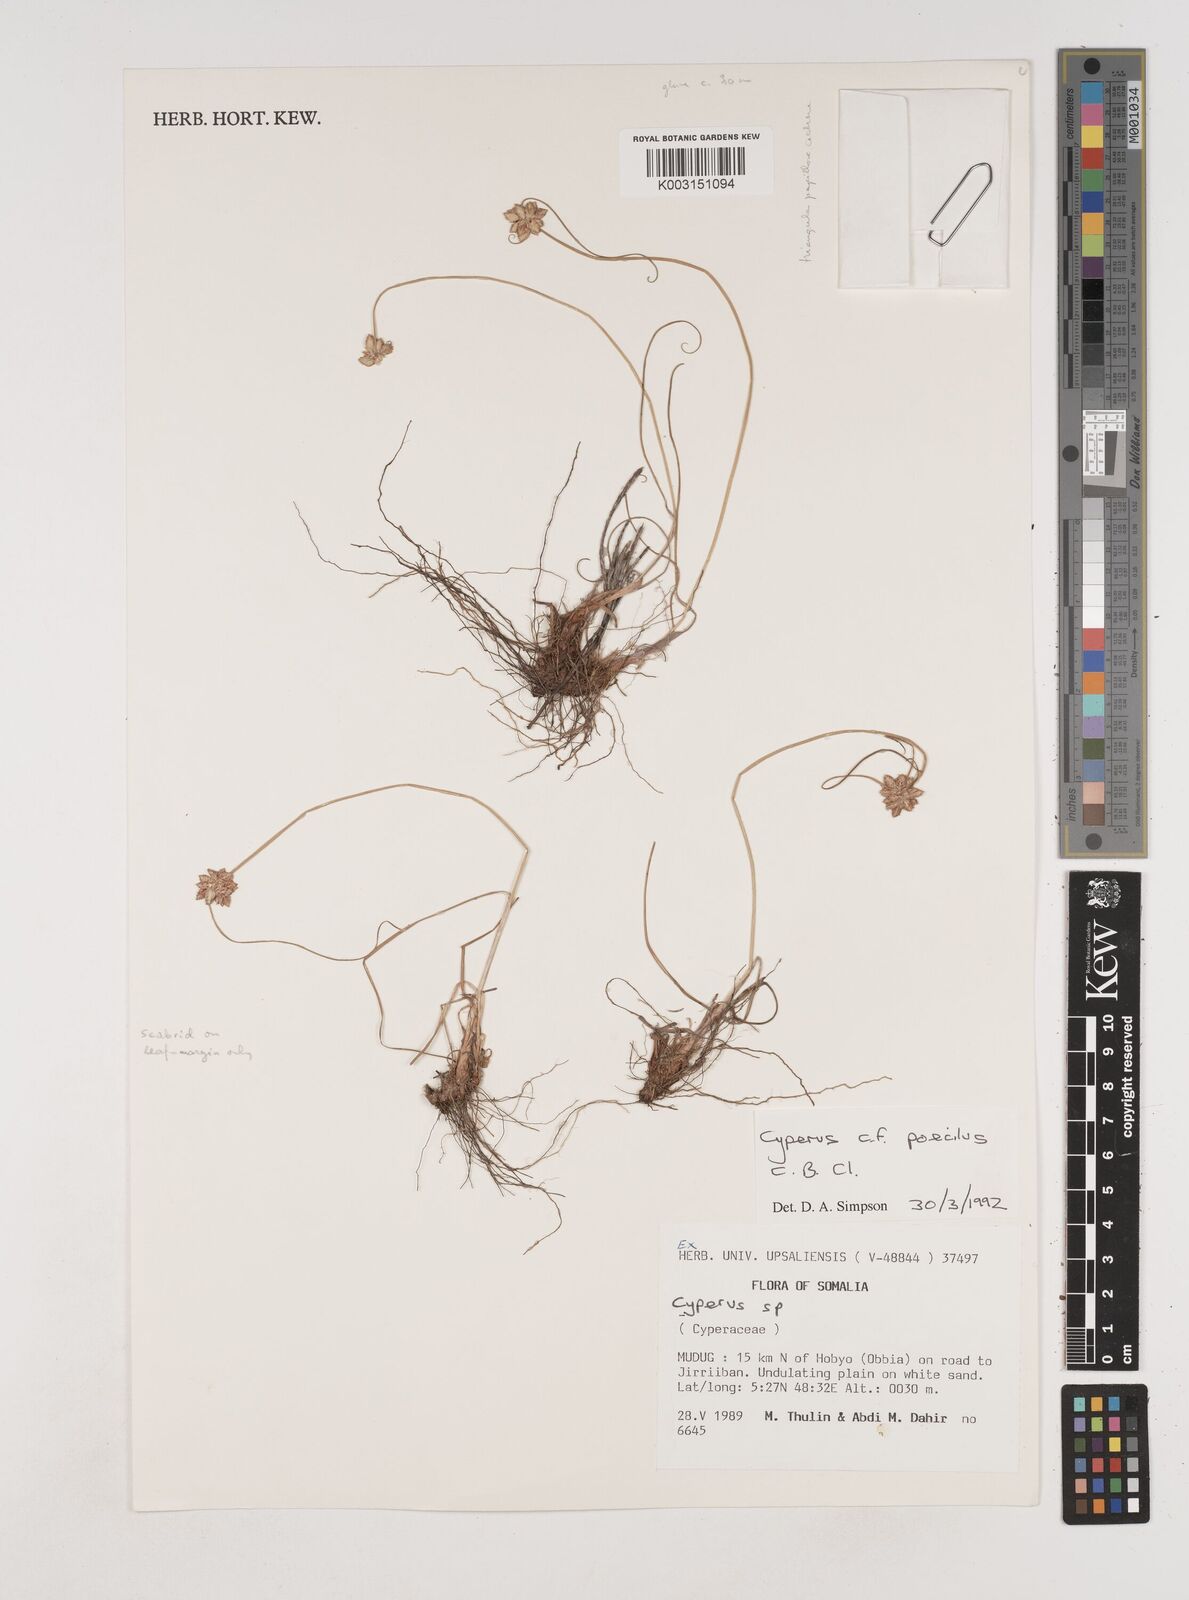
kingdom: Plantae
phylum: Tracheophyta
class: Liliopsida
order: Poales
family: Cyperaceae
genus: Cyperus
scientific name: Cyperus poecilus
